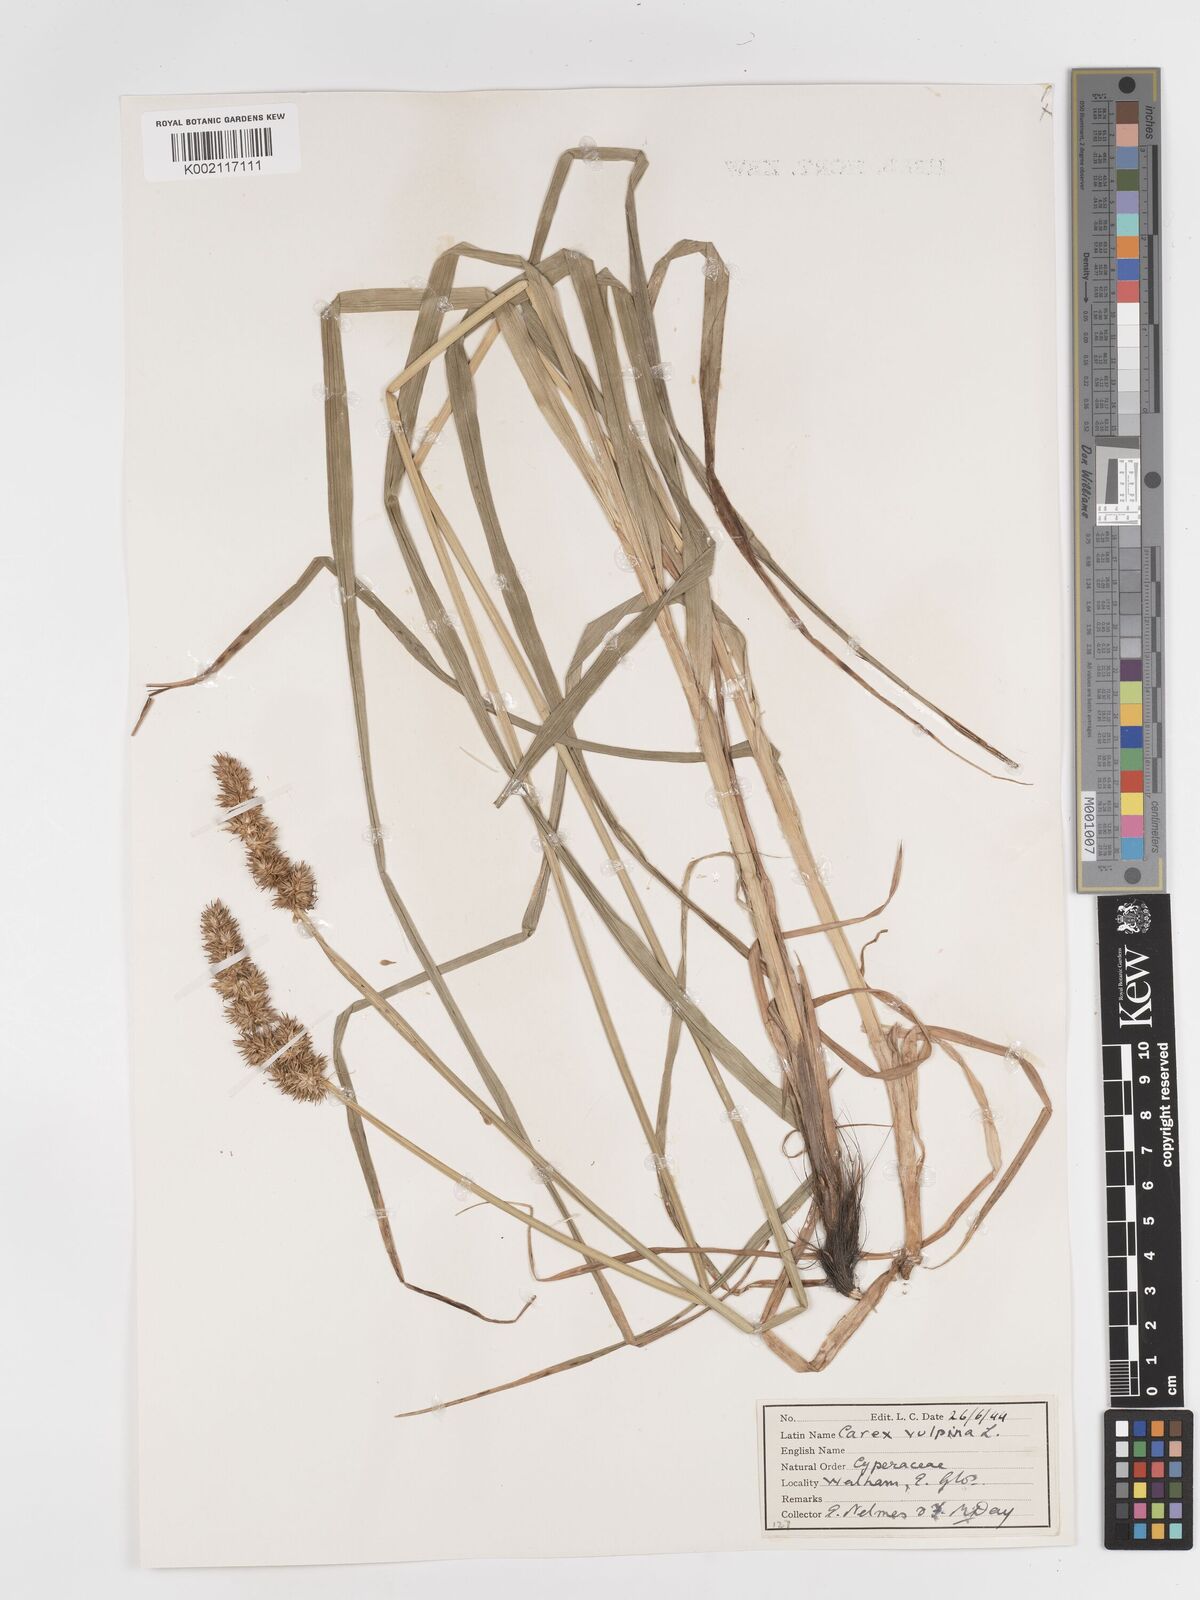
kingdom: Plantae
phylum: Tracheophyta
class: Liliopsida
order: Poales
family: Cyperaceae
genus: Carex
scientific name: Carex vulpina
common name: True fox-sedge
